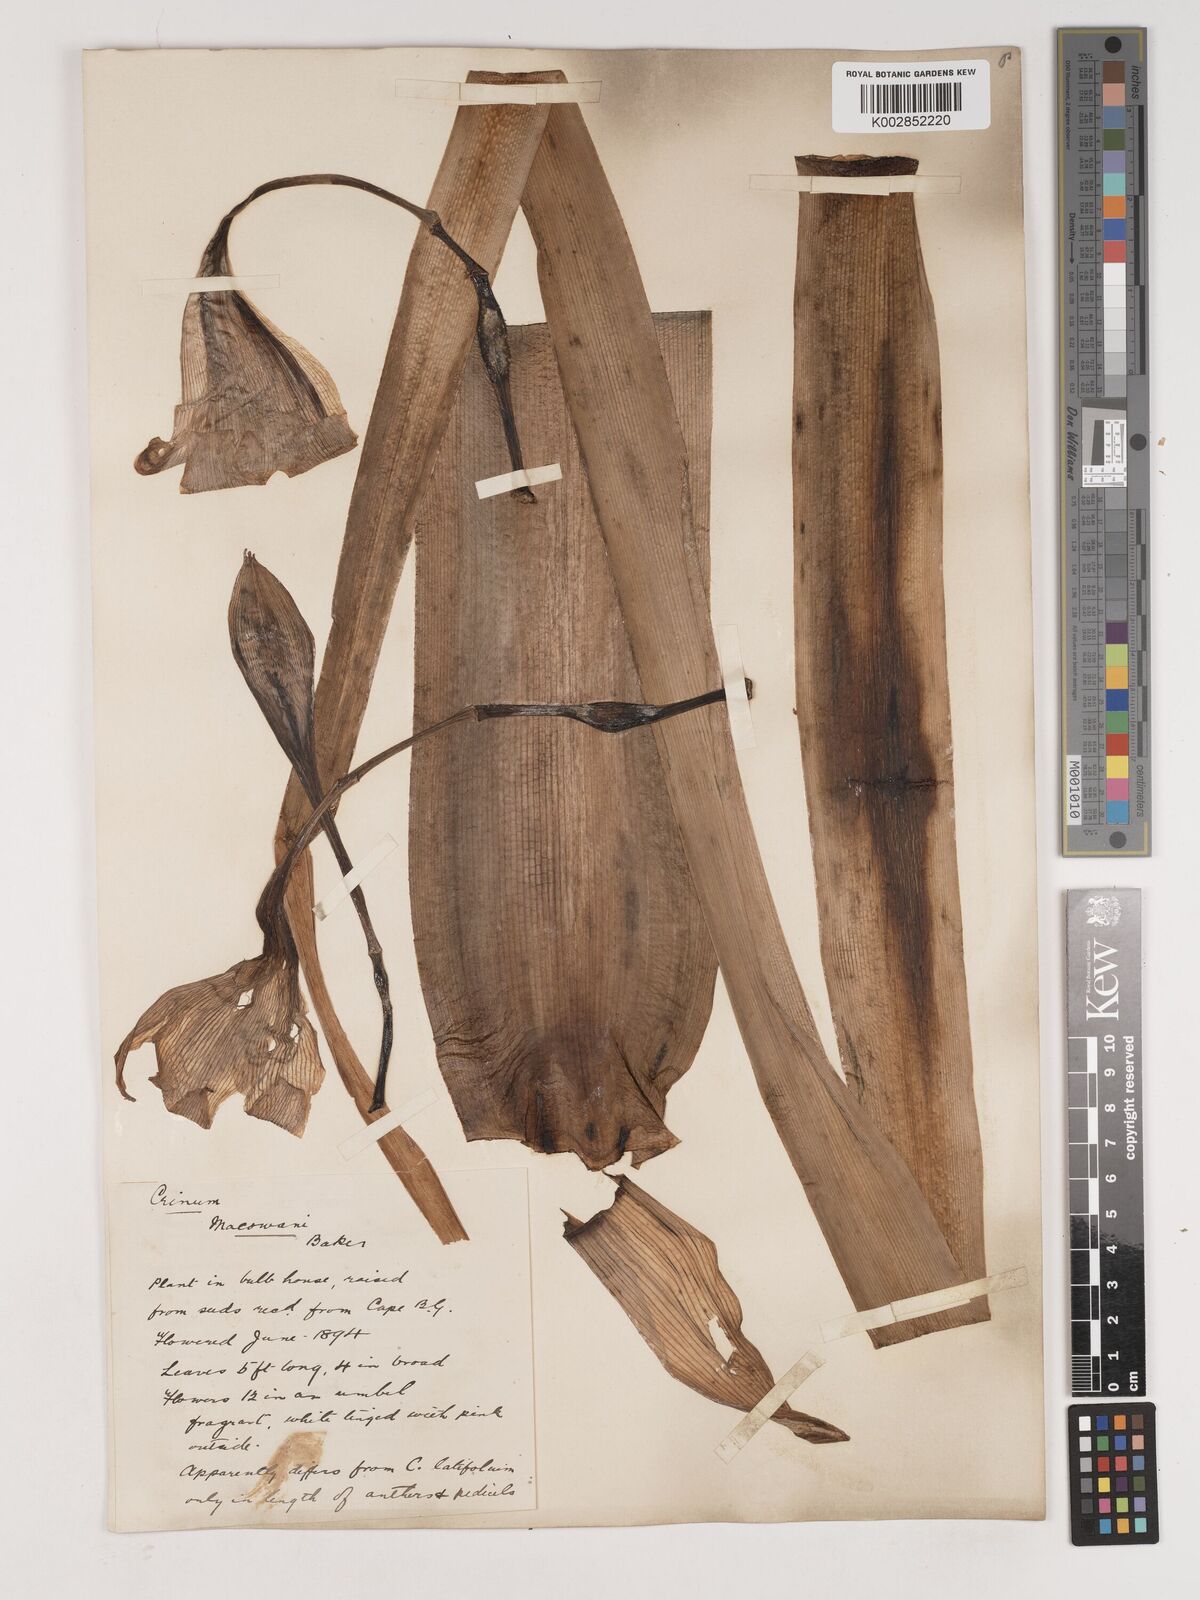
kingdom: Plantae
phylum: Tracheophyta
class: Liliopsida
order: Asparagales
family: Amaryllidaceae
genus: Crinum
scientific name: Crinum macowanii
